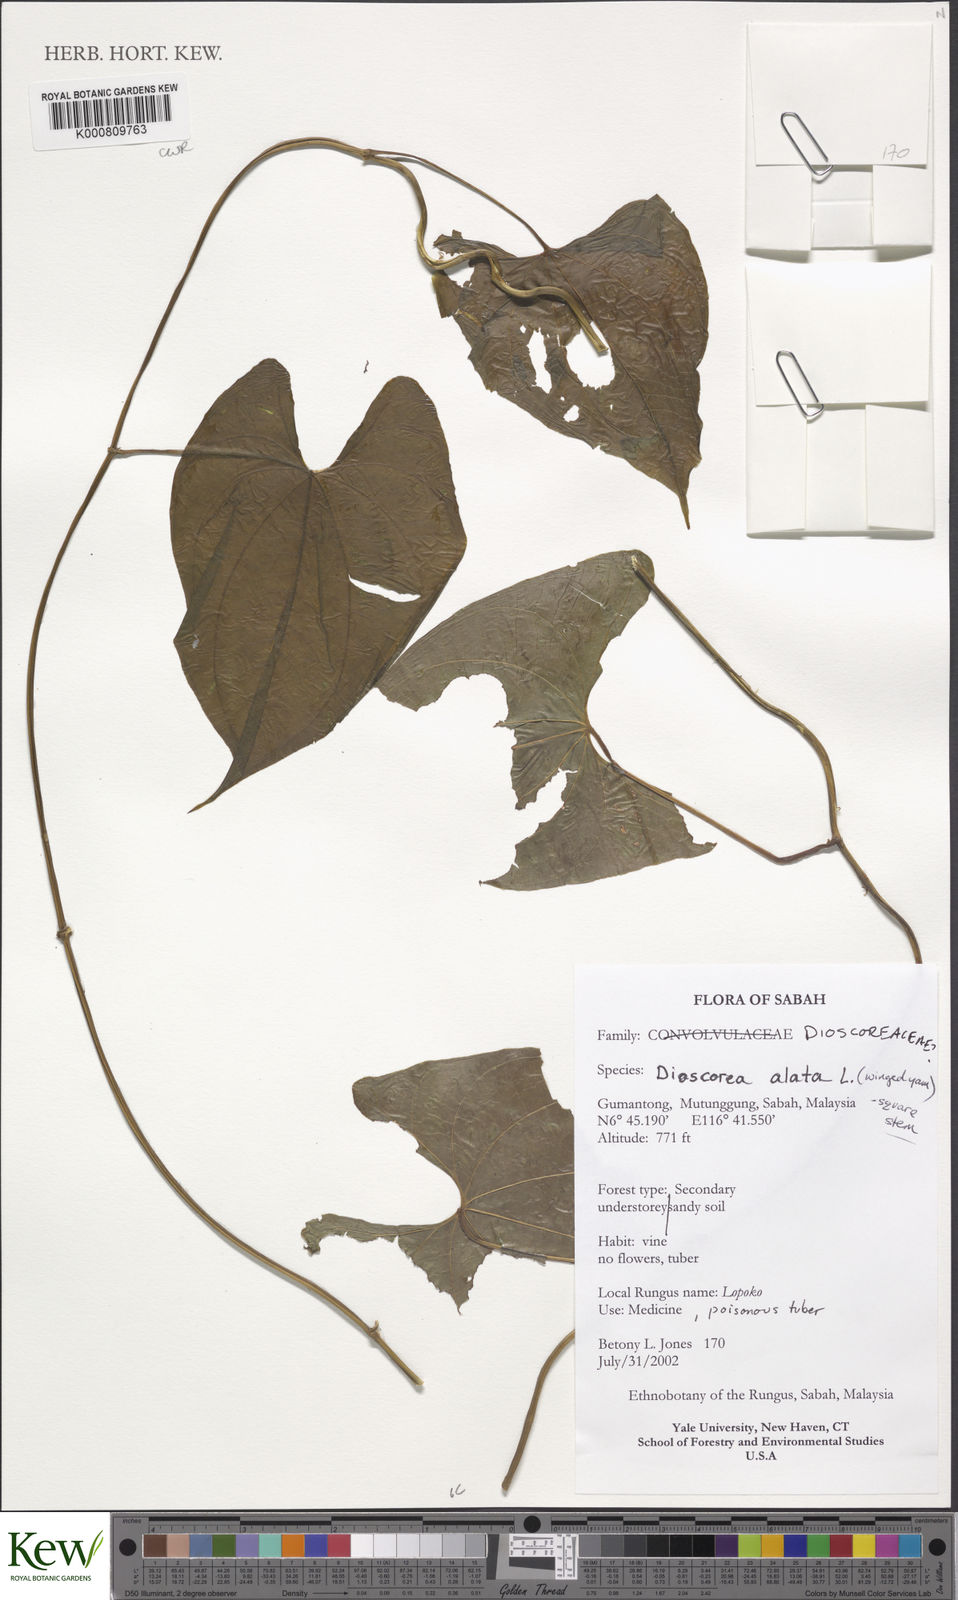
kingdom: Plantae
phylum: Tracheophyta
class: Liliopsida
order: Dioscoreales
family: Dioscoreaceae
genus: Dioscorea
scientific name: Dioscorea alata
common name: Water yam
